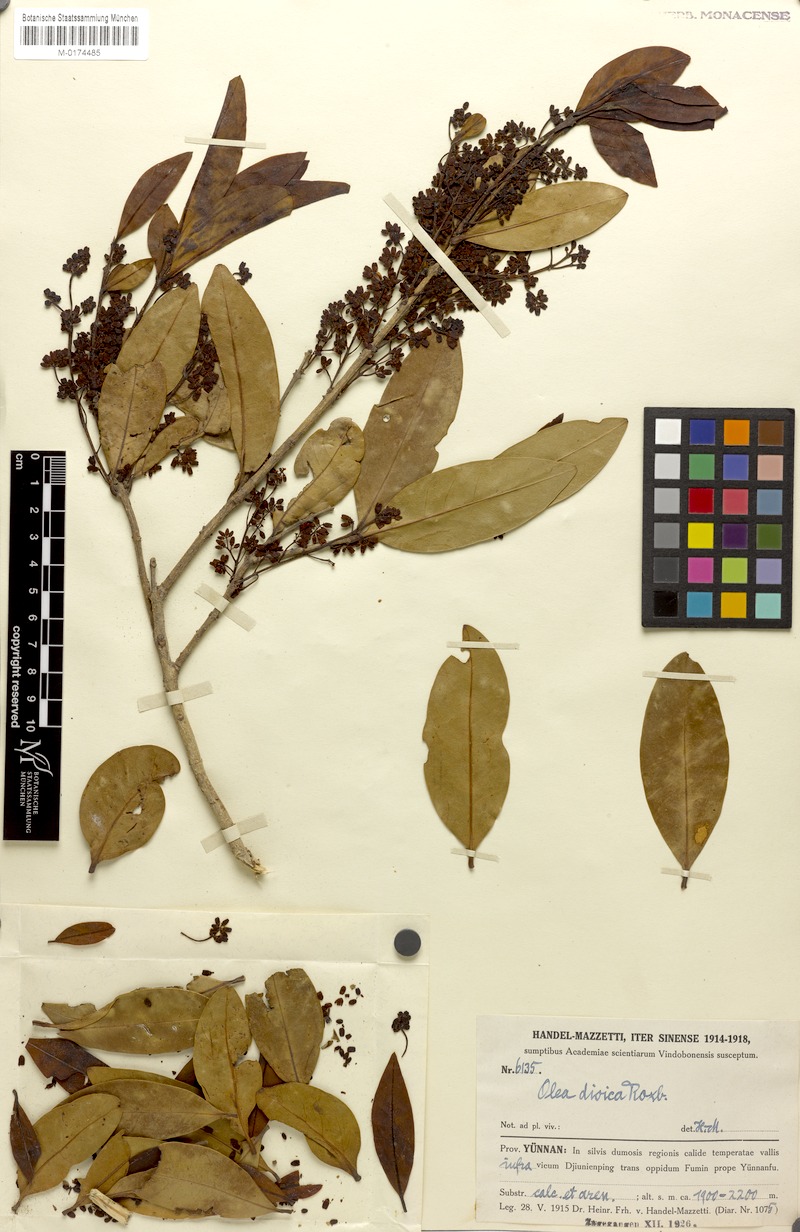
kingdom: Plantae
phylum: Tracheophyta
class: Magnoliopsida
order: Lamiales
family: Oleaceae
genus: Tetrapilus
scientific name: Tetrapilus tsoongii
